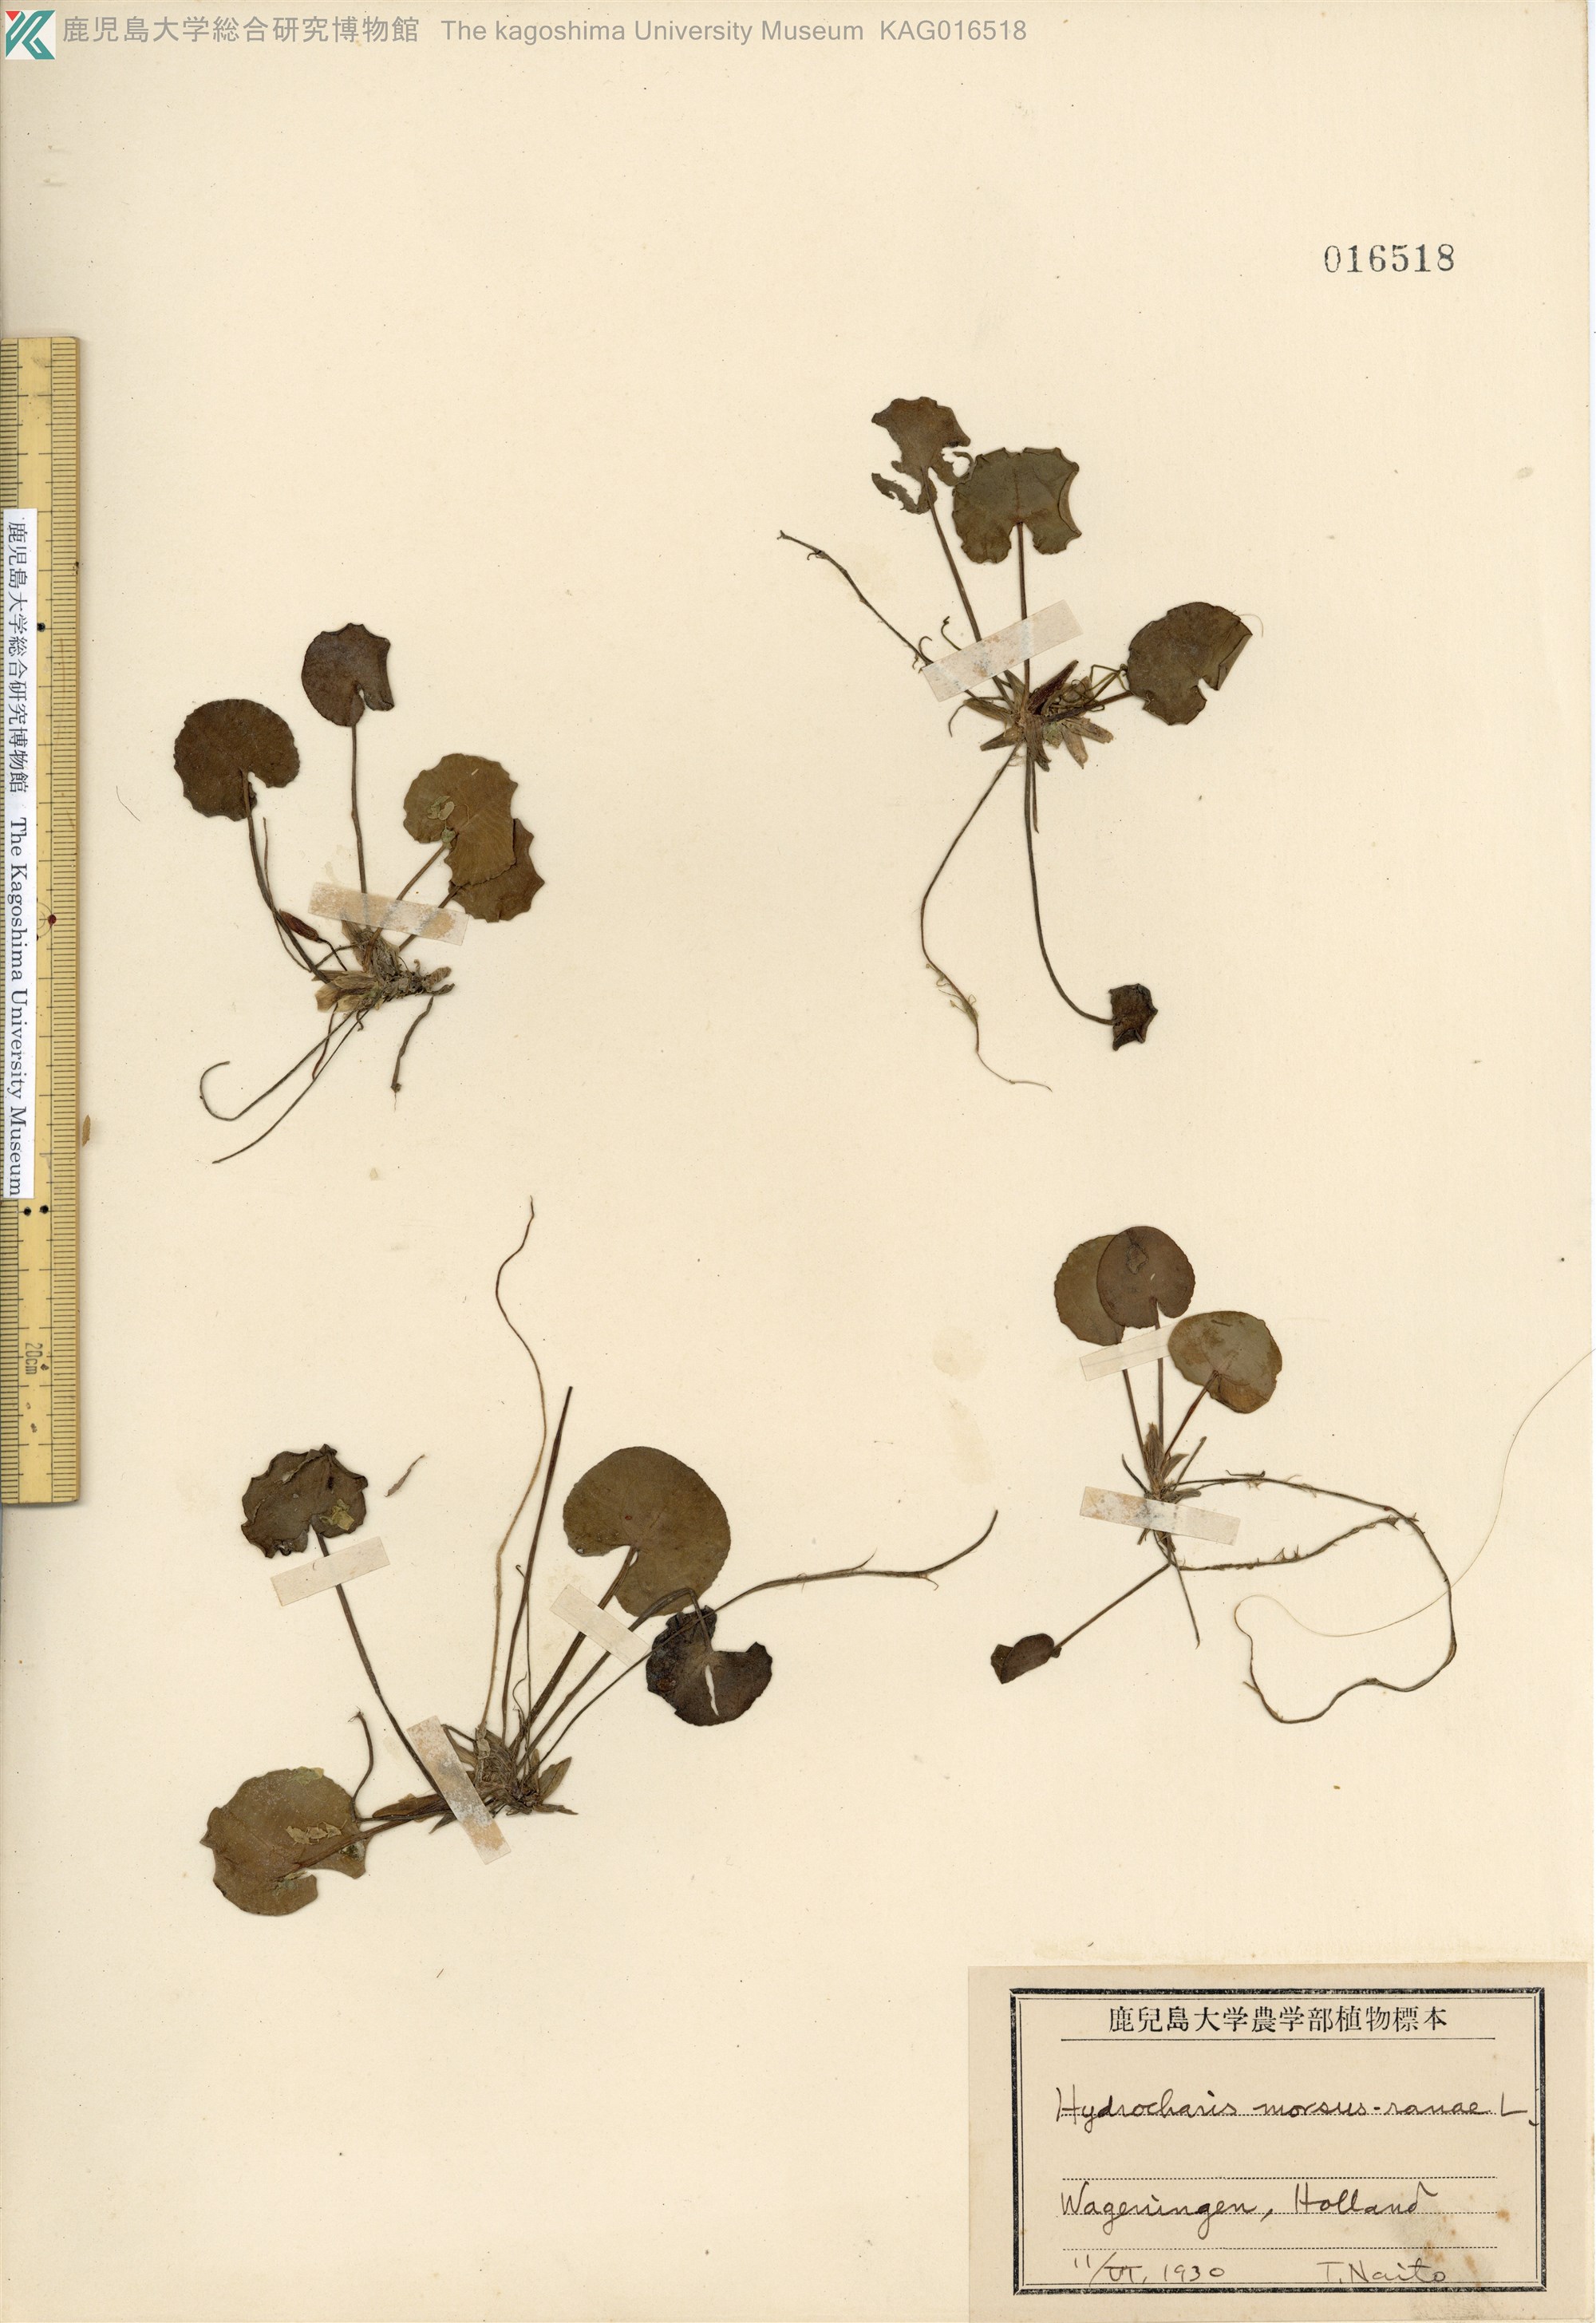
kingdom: Plantae
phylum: Tracheophyta
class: Liliopsida
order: Alismatales
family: Hydrocharitaceae
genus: Hydrocharis
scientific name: Hydrocharis
